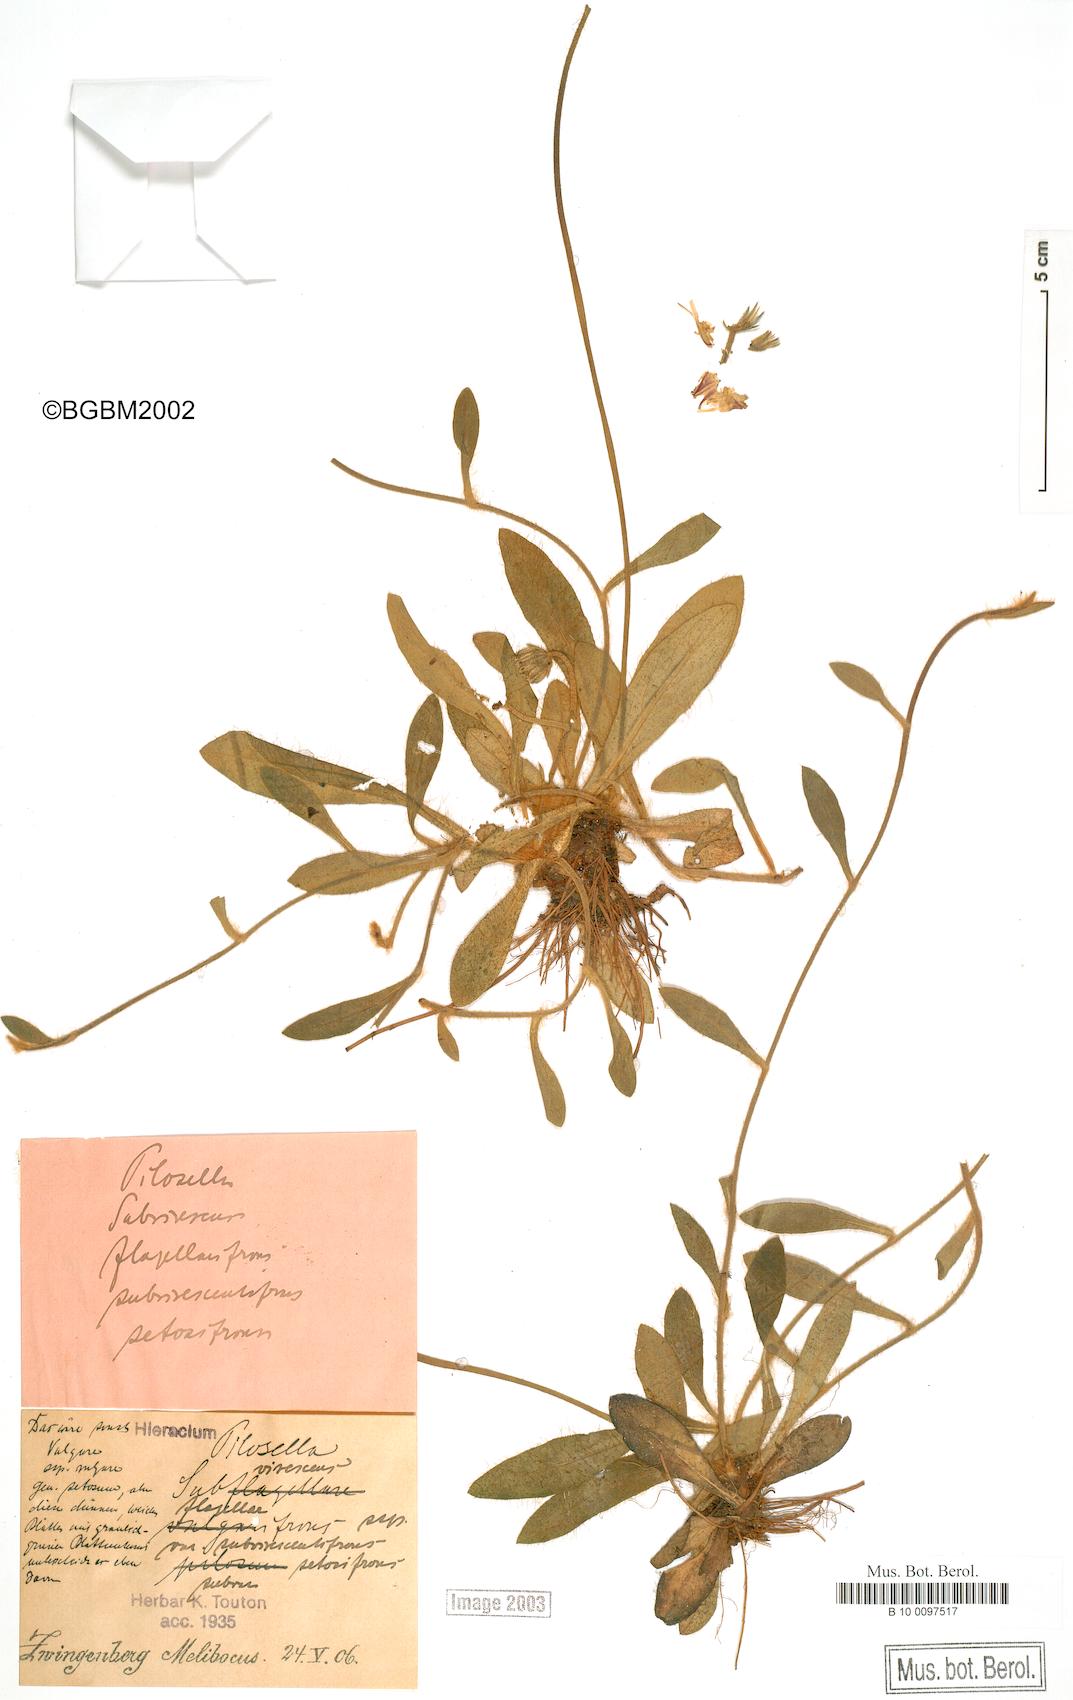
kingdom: Plantae
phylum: Tracheophyta
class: Magnoliopsida
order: Asterales
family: Asteraceae
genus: Pilosella
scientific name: Pilosella officinarum
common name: Mouse-ear hawkweed
